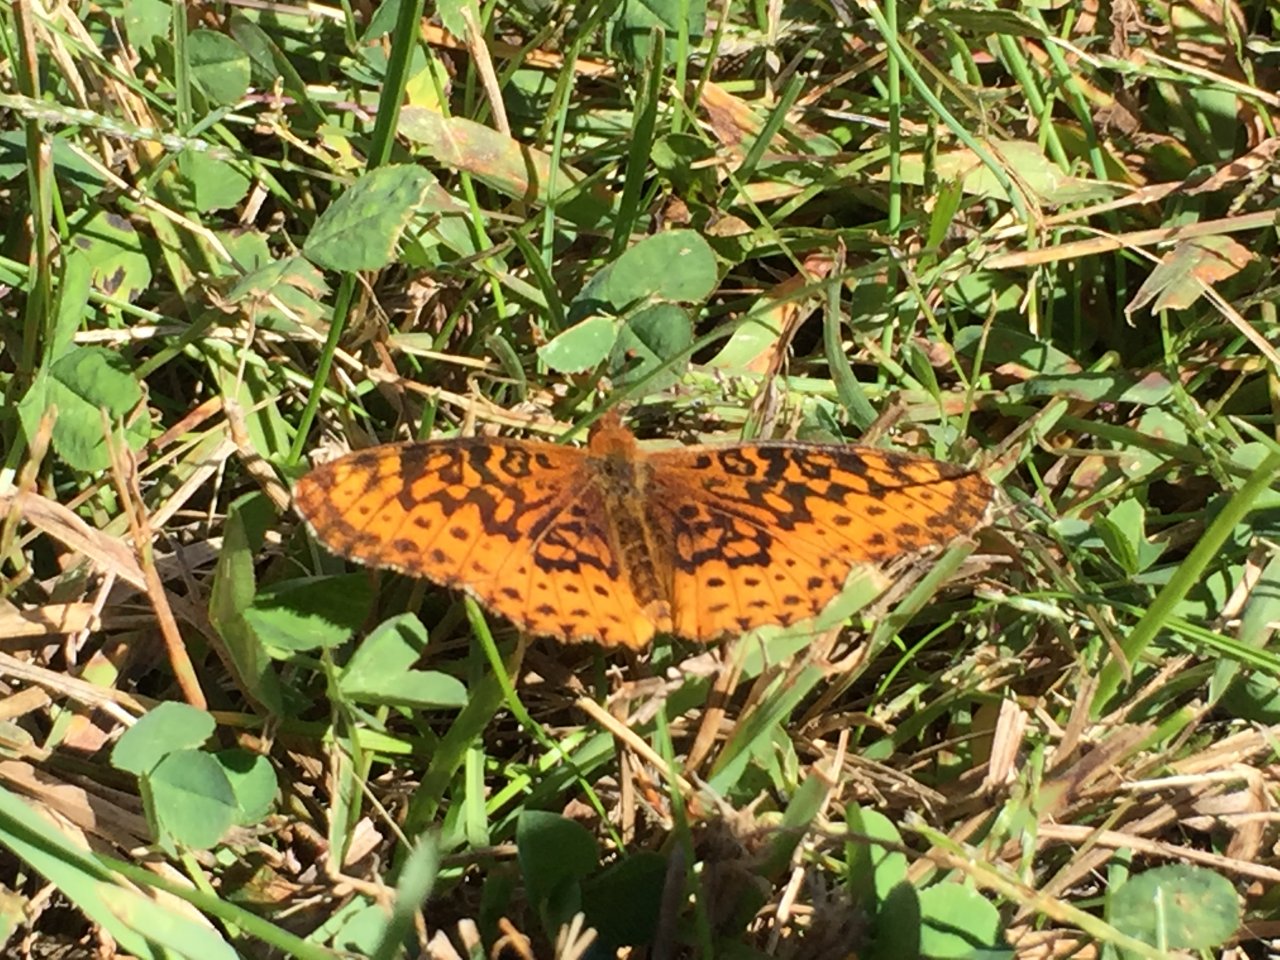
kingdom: Animalia
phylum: Arthropoda
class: Insecta
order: Lepidoptera
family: Nymphalidae
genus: Clossiana
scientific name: Clossiana toddi
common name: Meadow Fritillary
